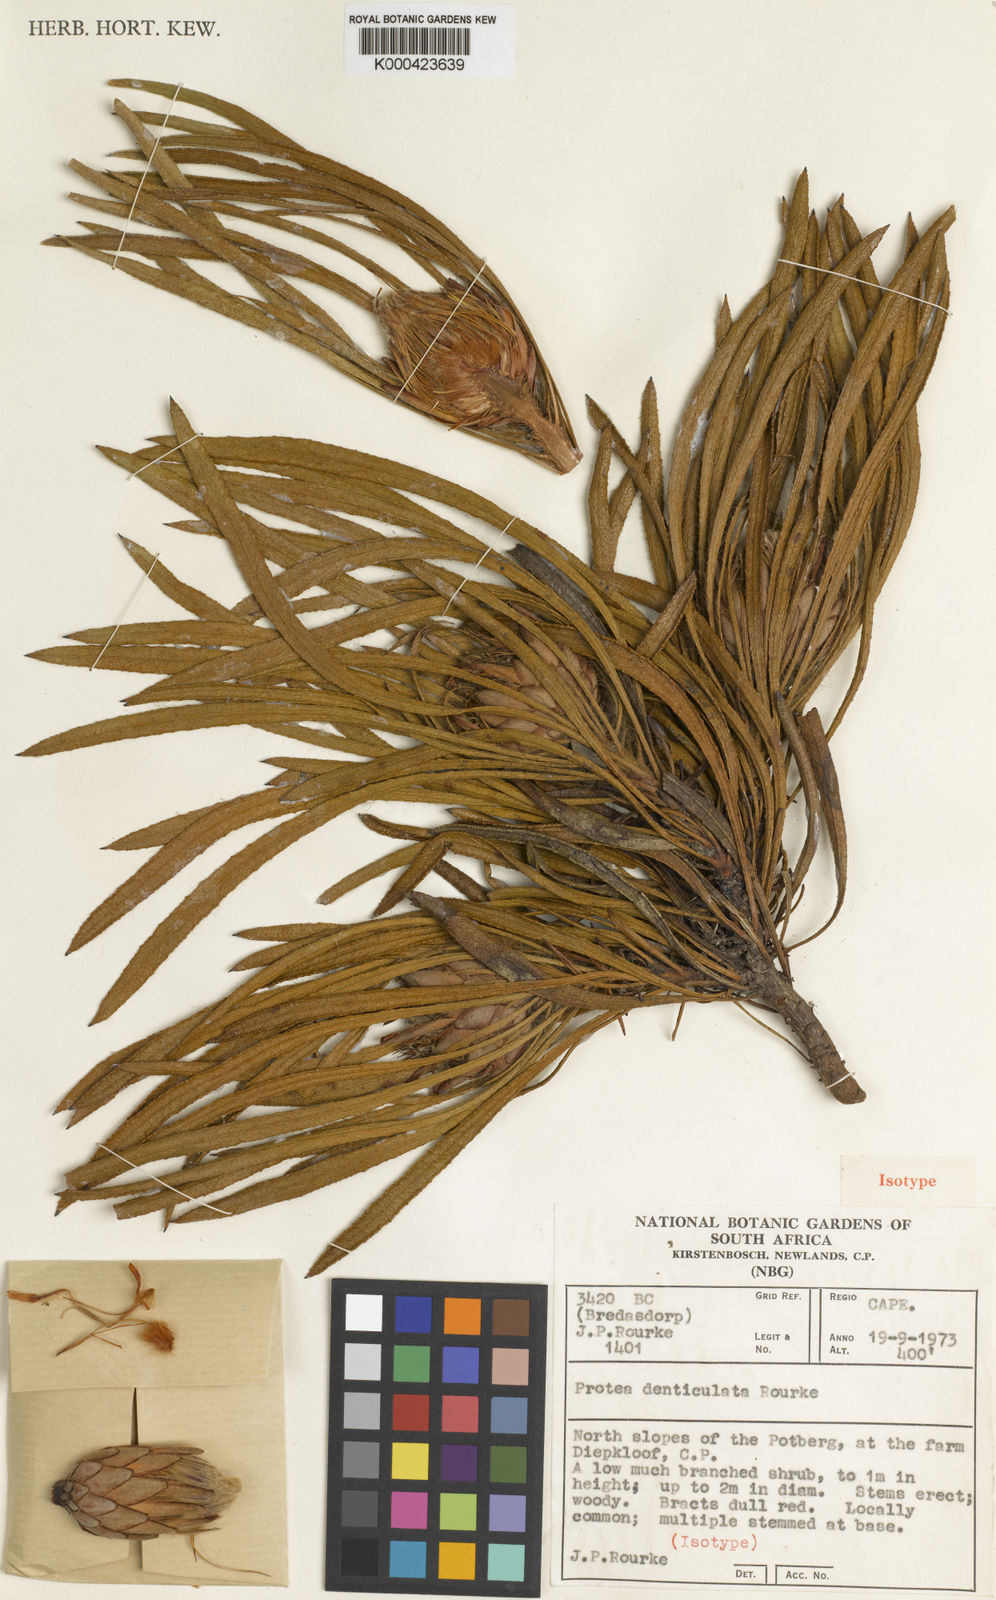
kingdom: Plantae
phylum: Tracheophyta
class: Magnoliopsida
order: Proteales
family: Proteaceae
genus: Protea
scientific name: Protea denticulata
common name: Tooth-leaf sugarbush
